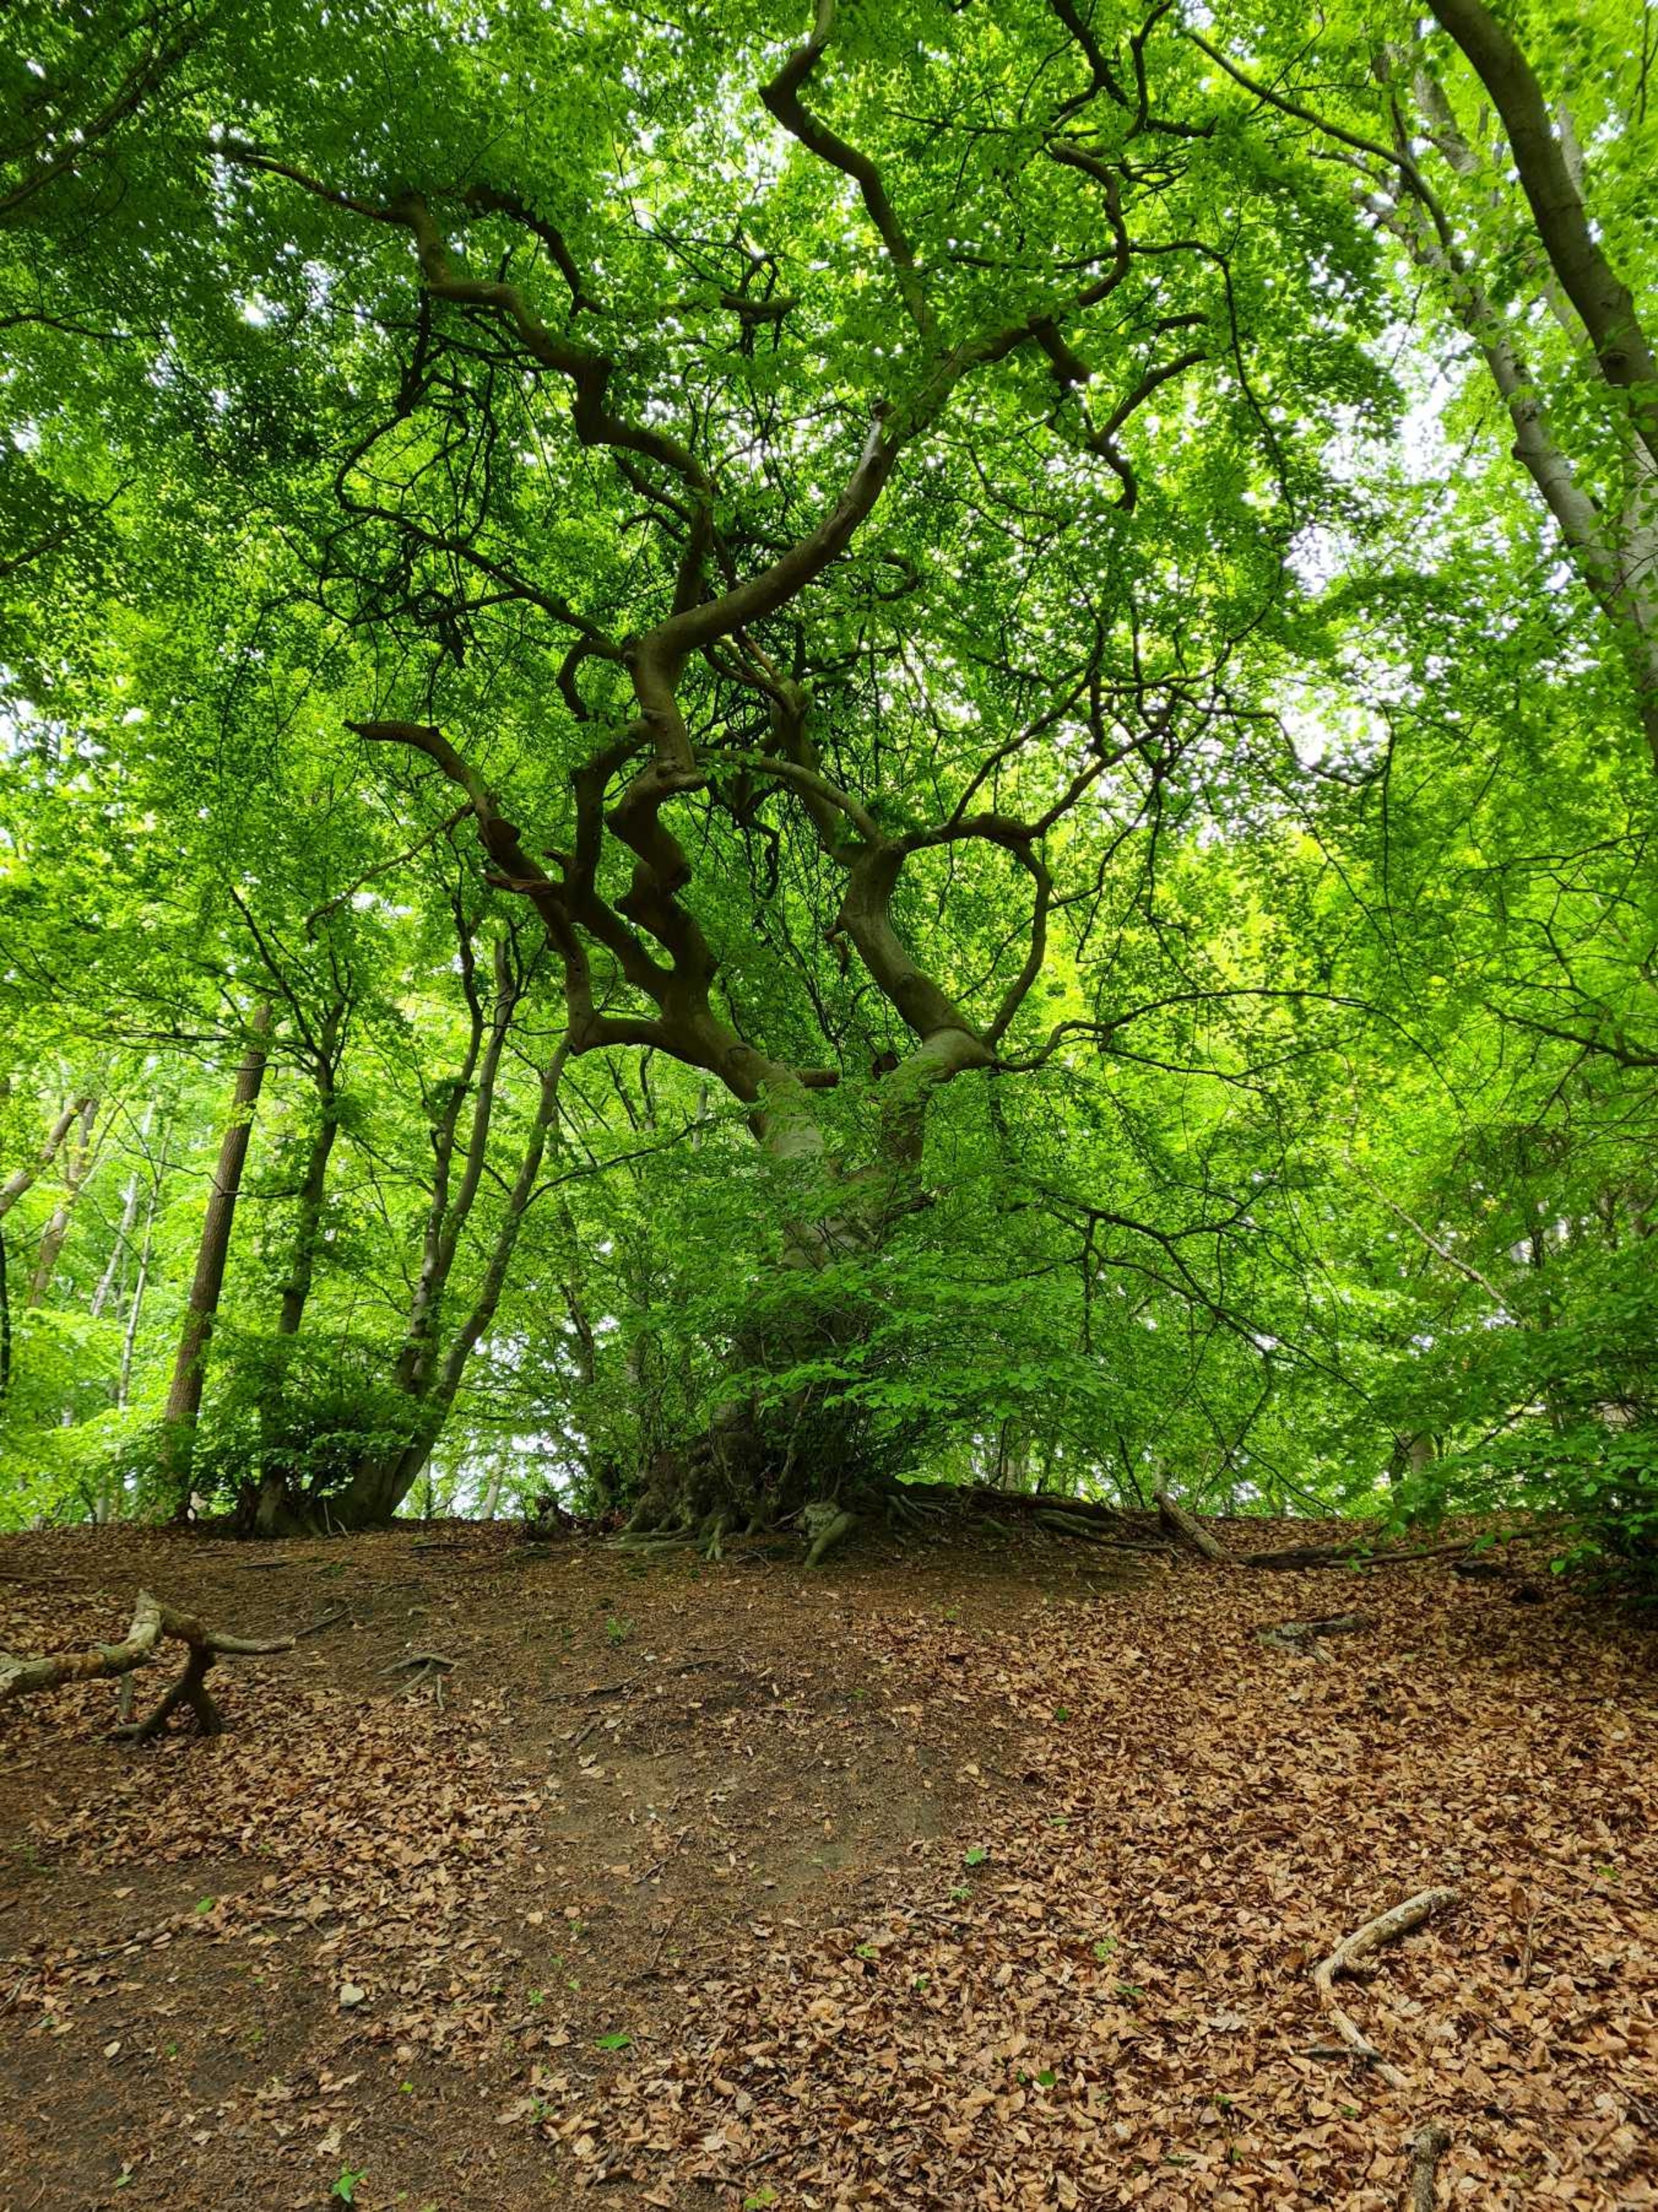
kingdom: Plantae
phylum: Tracheophyta
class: Magnoliopsida
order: Fagales
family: Fagaceae
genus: Fagus
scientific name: Fagus sylvatica
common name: Bøg
